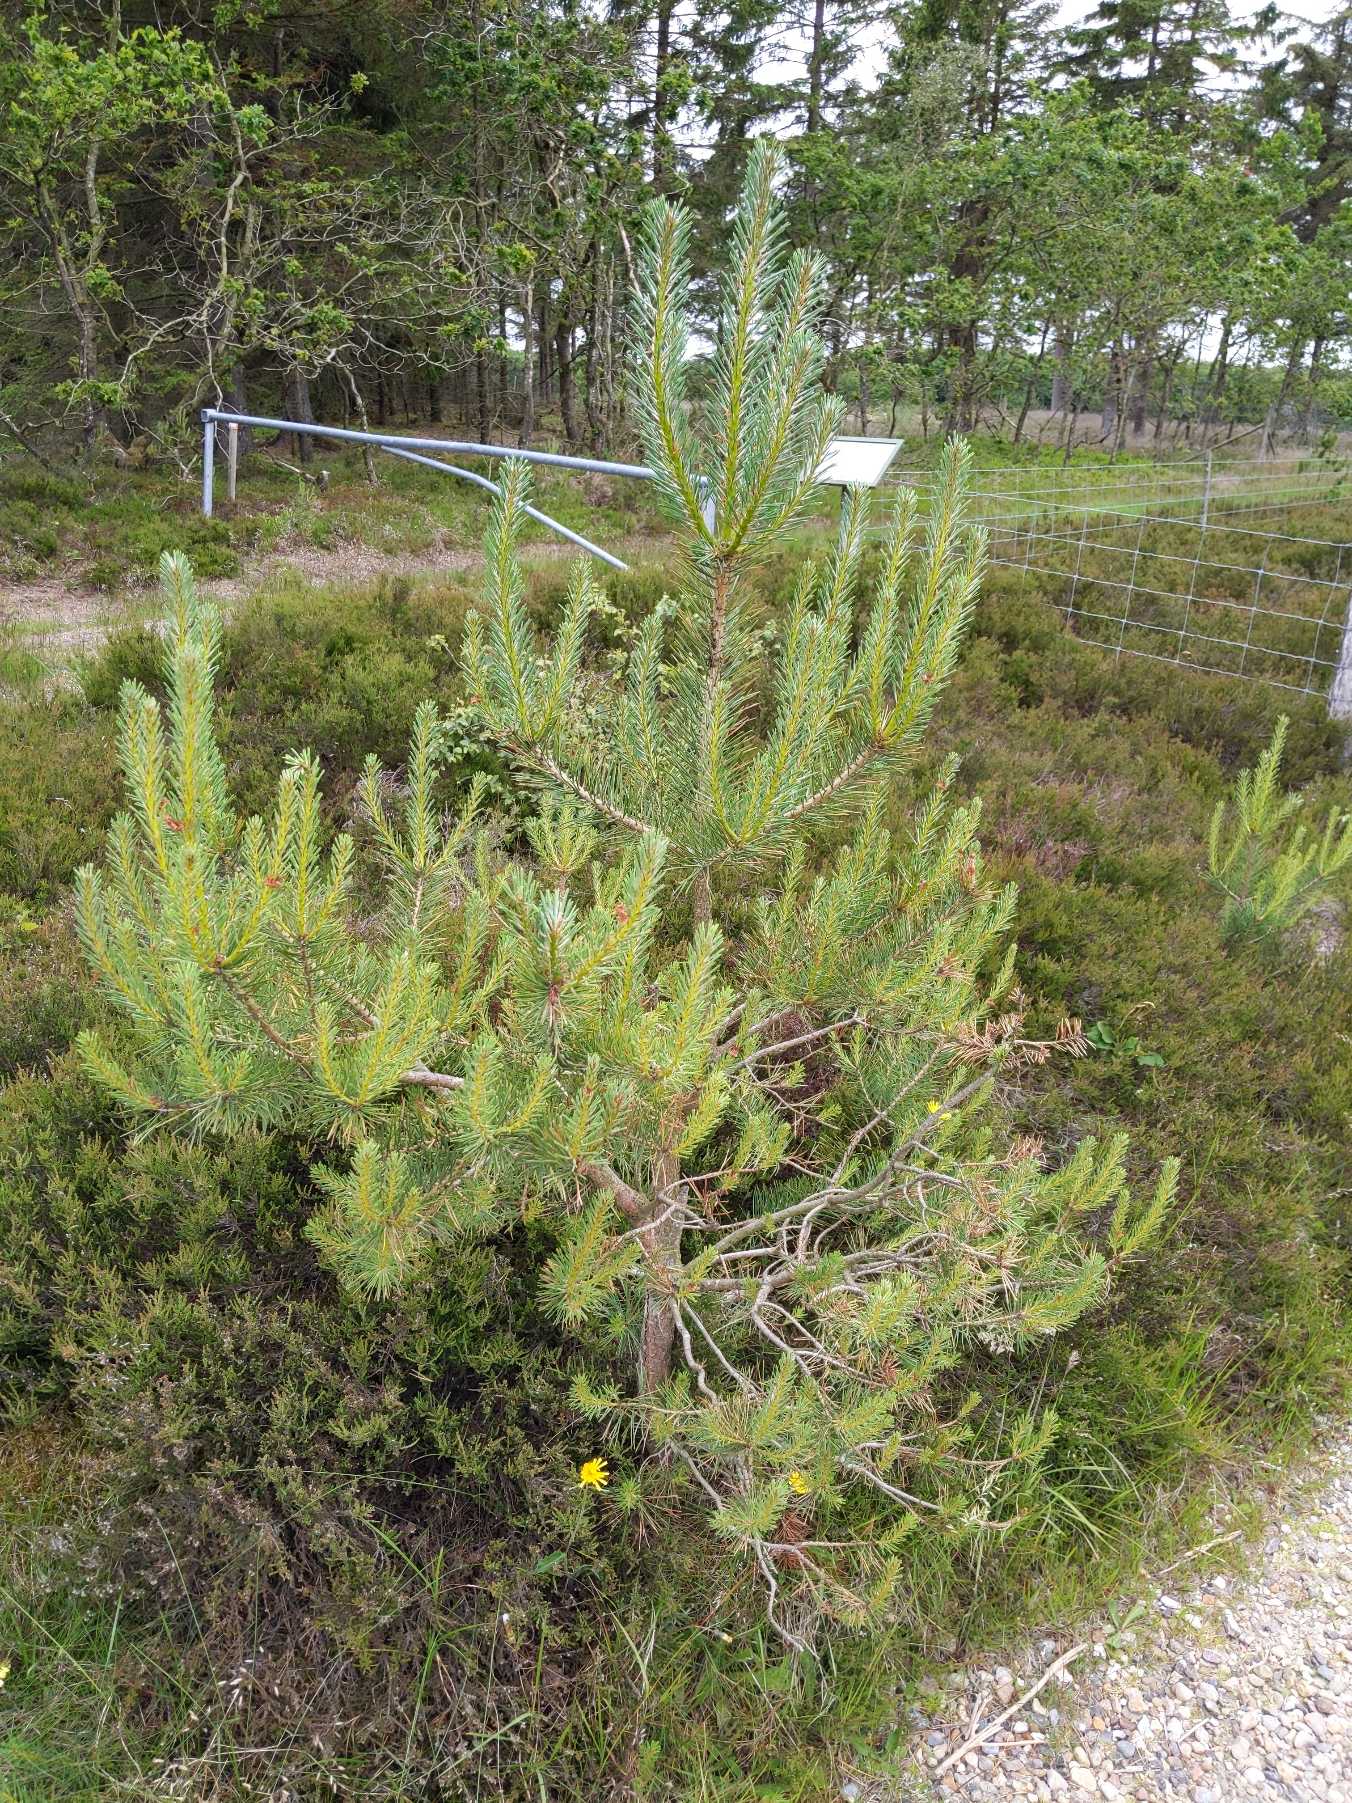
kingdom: Plantae
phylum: Tracheophyta
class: Pinopsida
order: Pinales
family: Pinaceae
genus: Pinus
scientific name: Pinus sylvestris
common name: Skov-fyr
